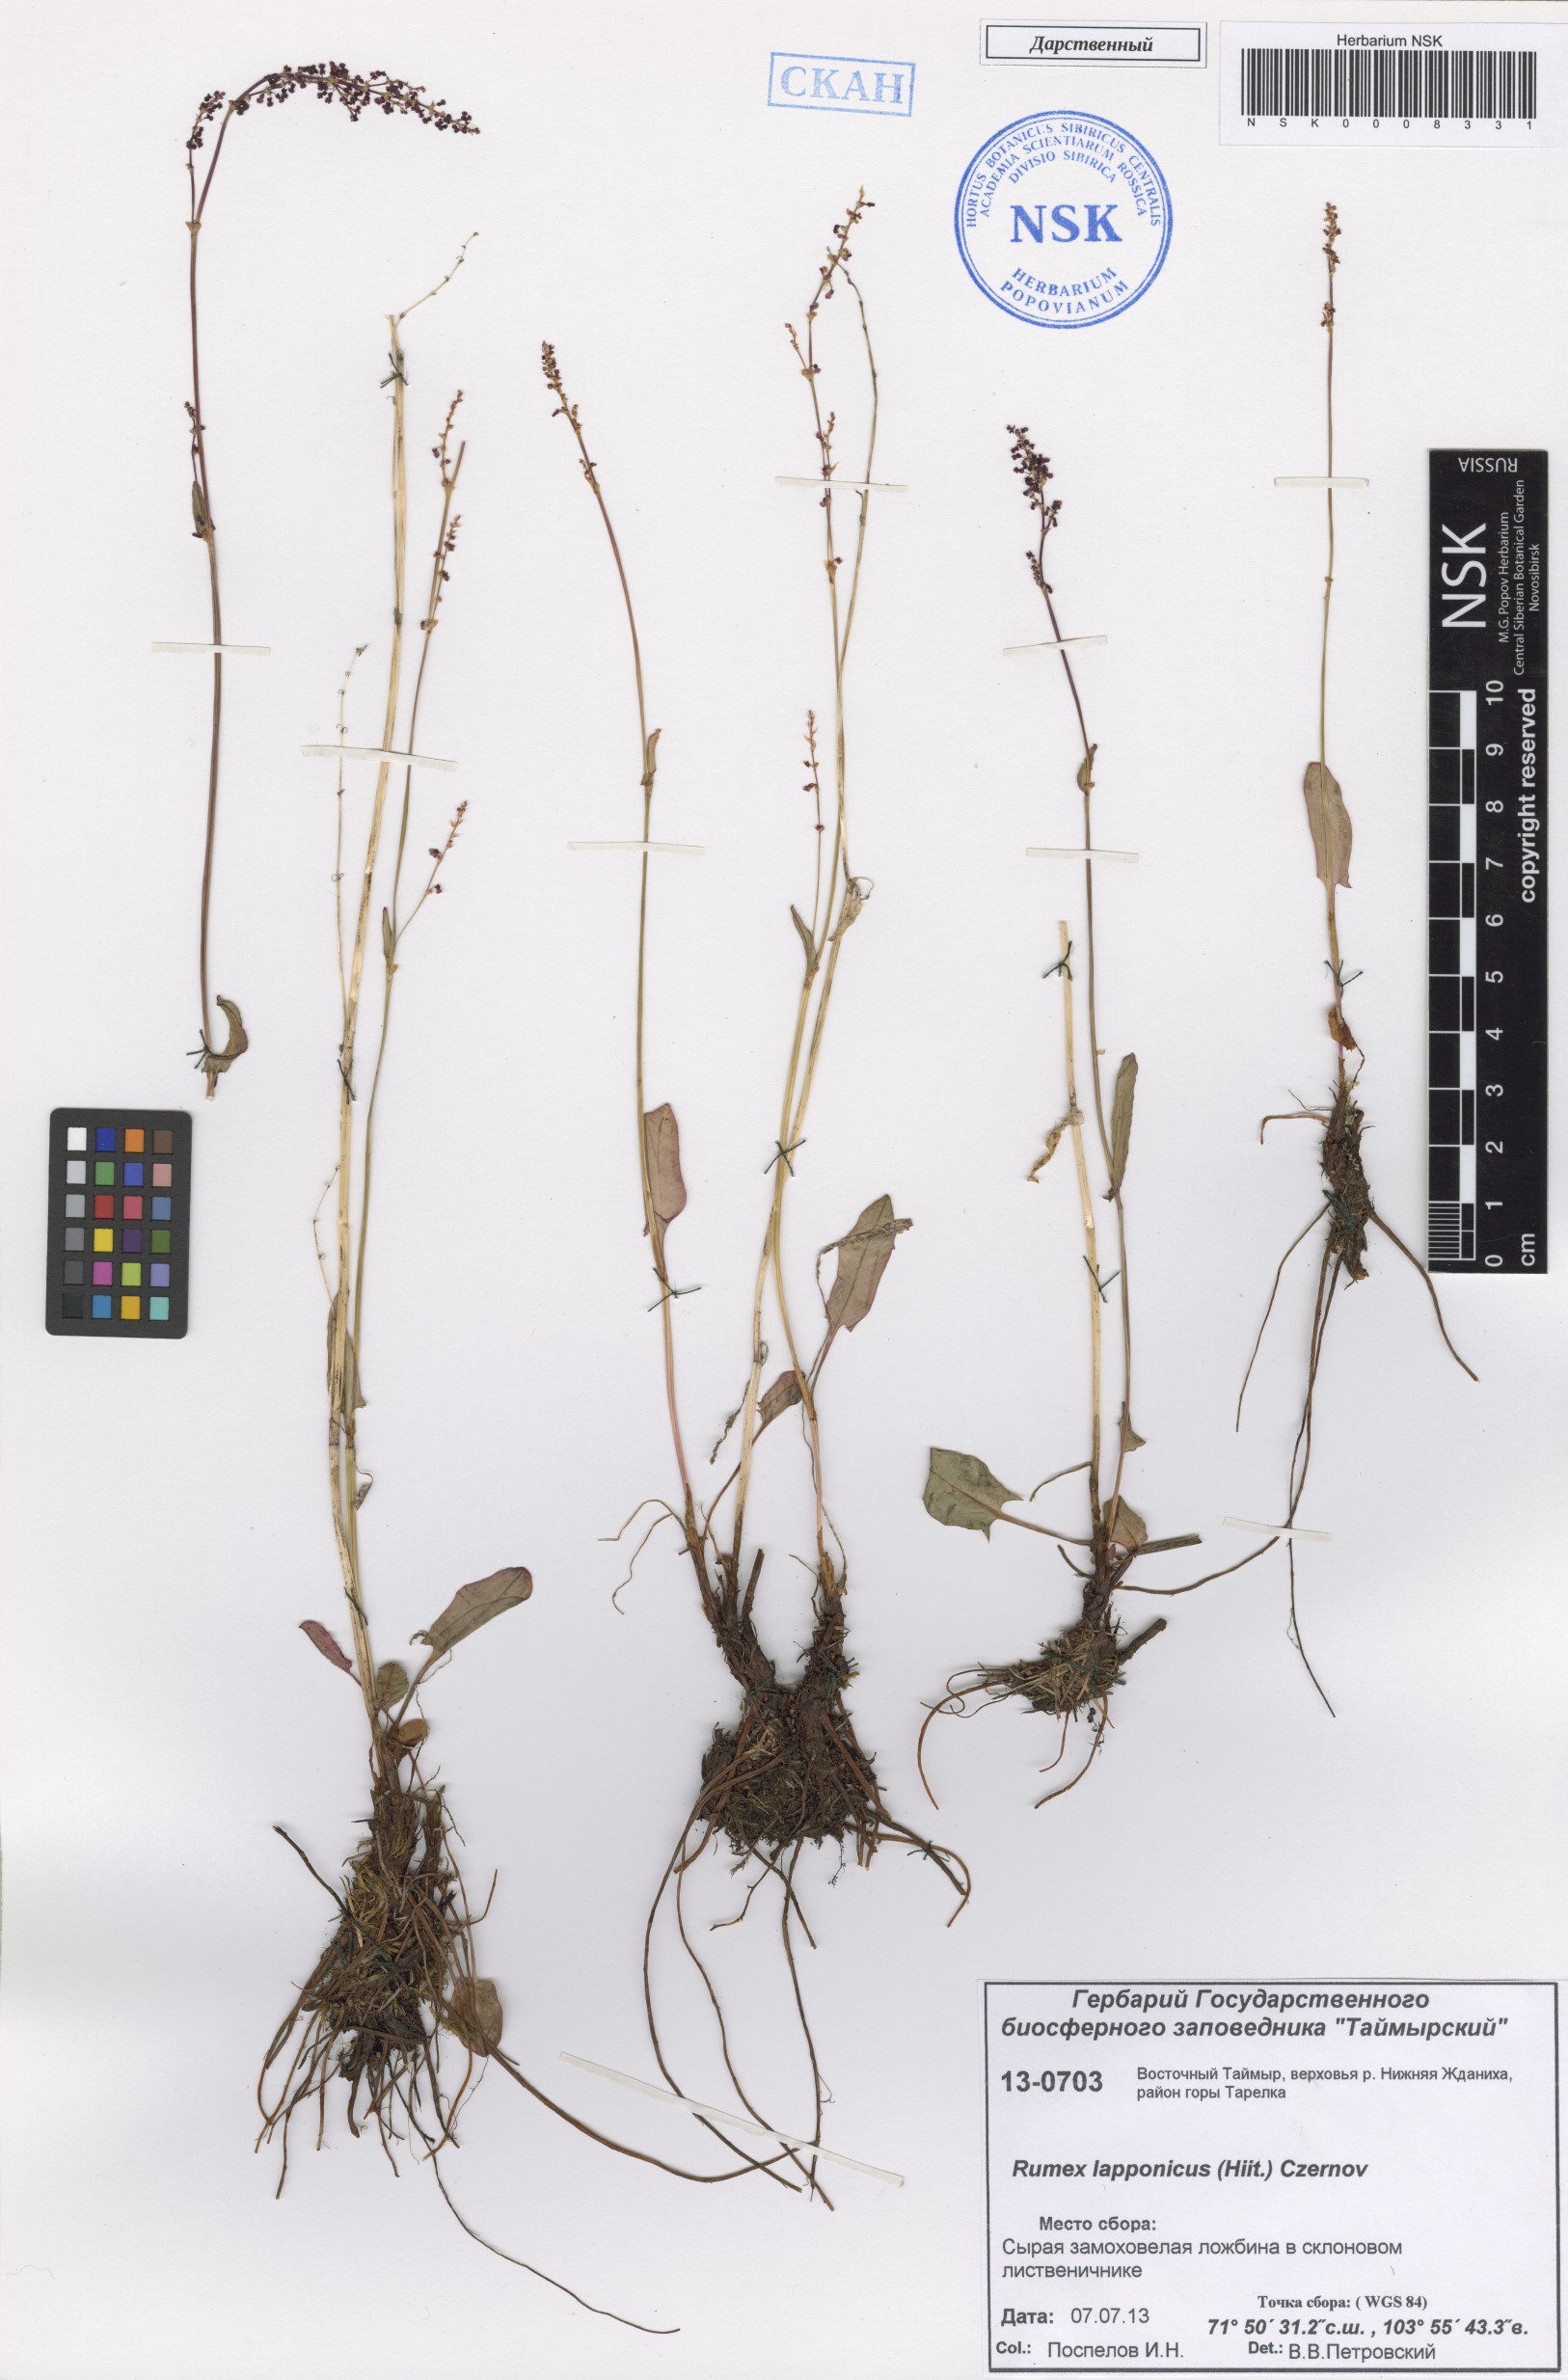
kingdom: Plantae
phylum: Tracheophyta
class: Magnoliopsida
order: Caryophyllales
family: Polygonaceae
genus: Rumex
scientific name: Rumex lapponicus
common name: Lapland mountain sorrel
